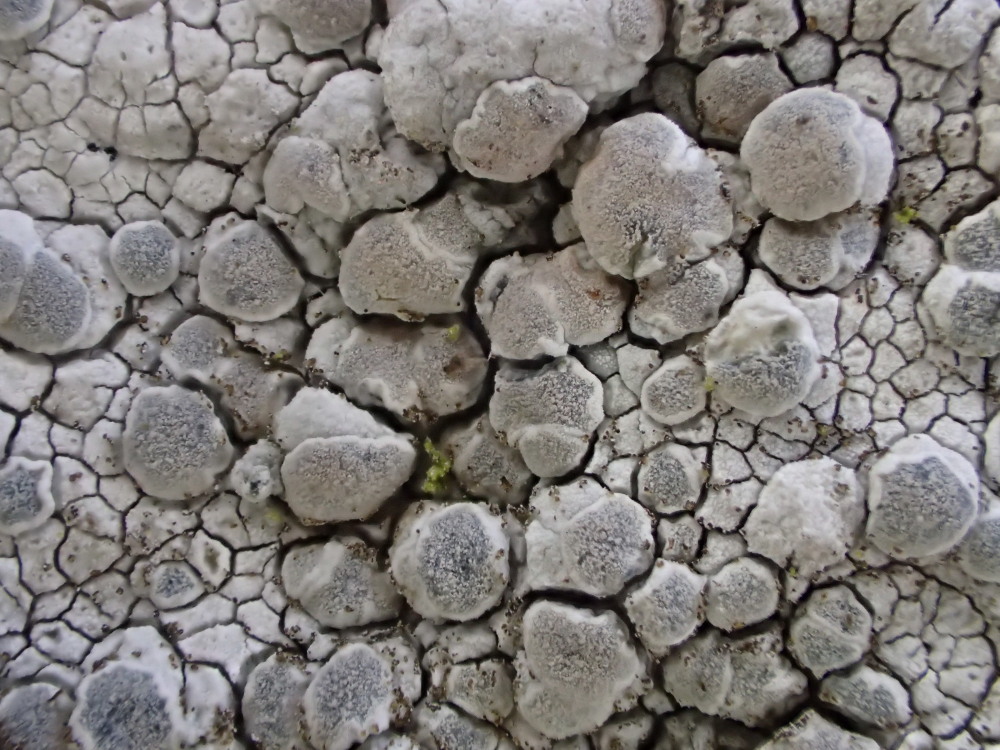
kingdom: Fungi
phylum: Ascomycota
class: Lecanoromycetes
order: Lecanorales
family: Lecanoraceae
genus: Glaucomaria
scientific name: Glaucomaria rupicola
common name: stengærde-kantskivelav
